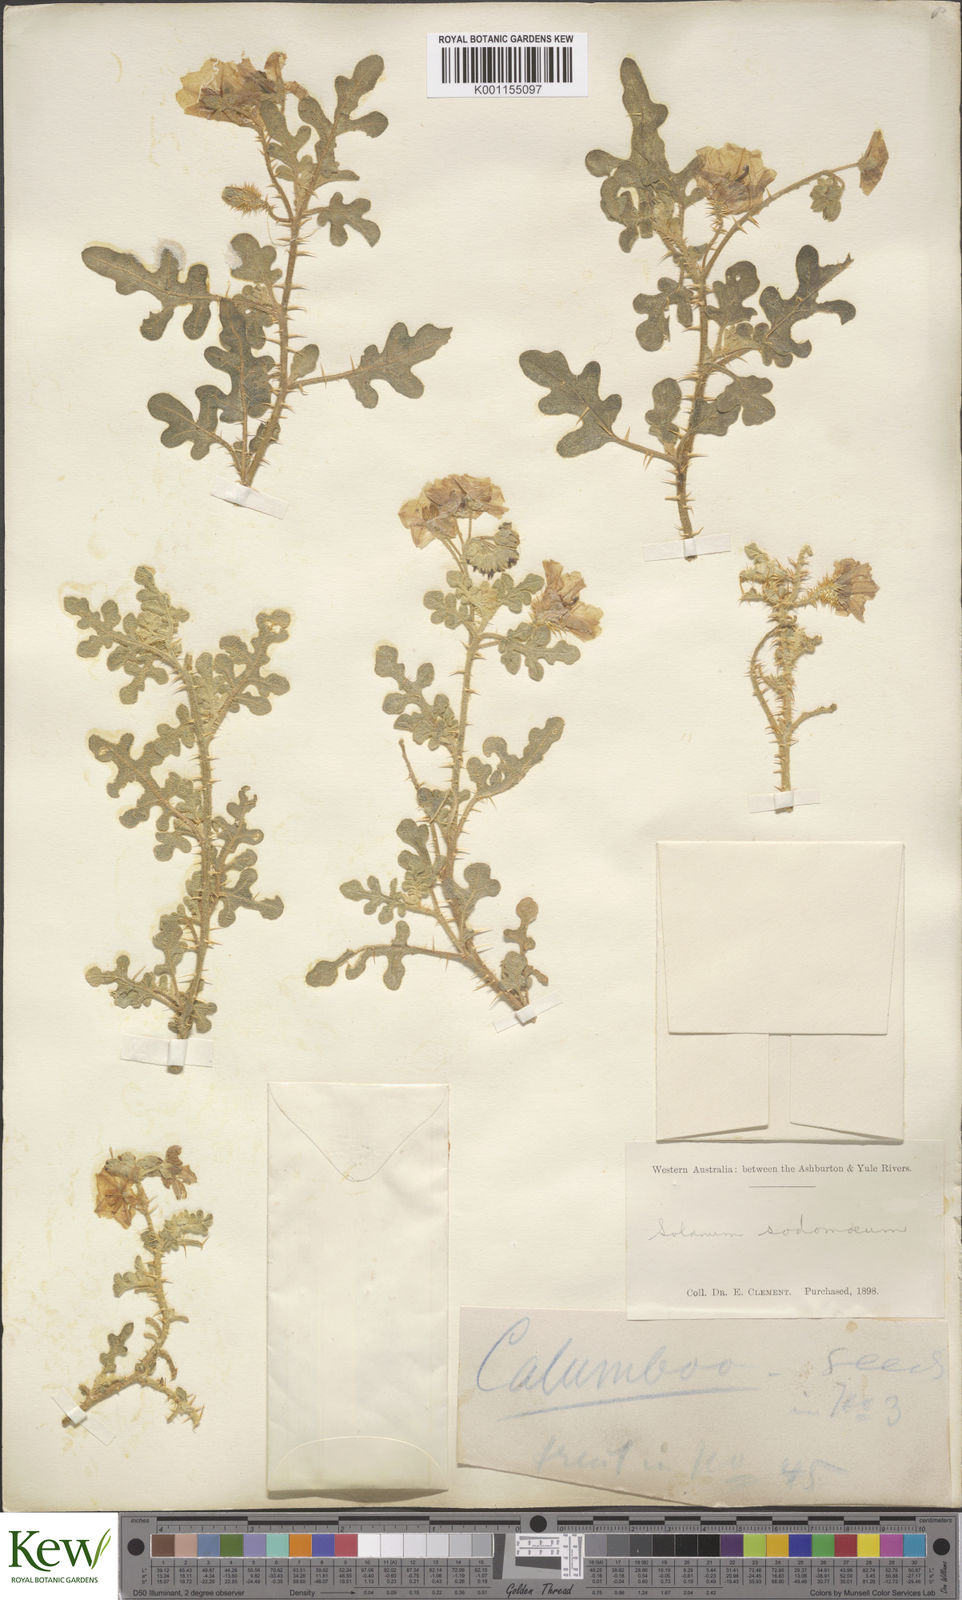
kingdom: Plantae
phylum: Tracheophyta
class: Magnoliopsida
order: Solanales
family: Solanaceae
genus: Solanum
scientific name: Solanum diversiflorum
